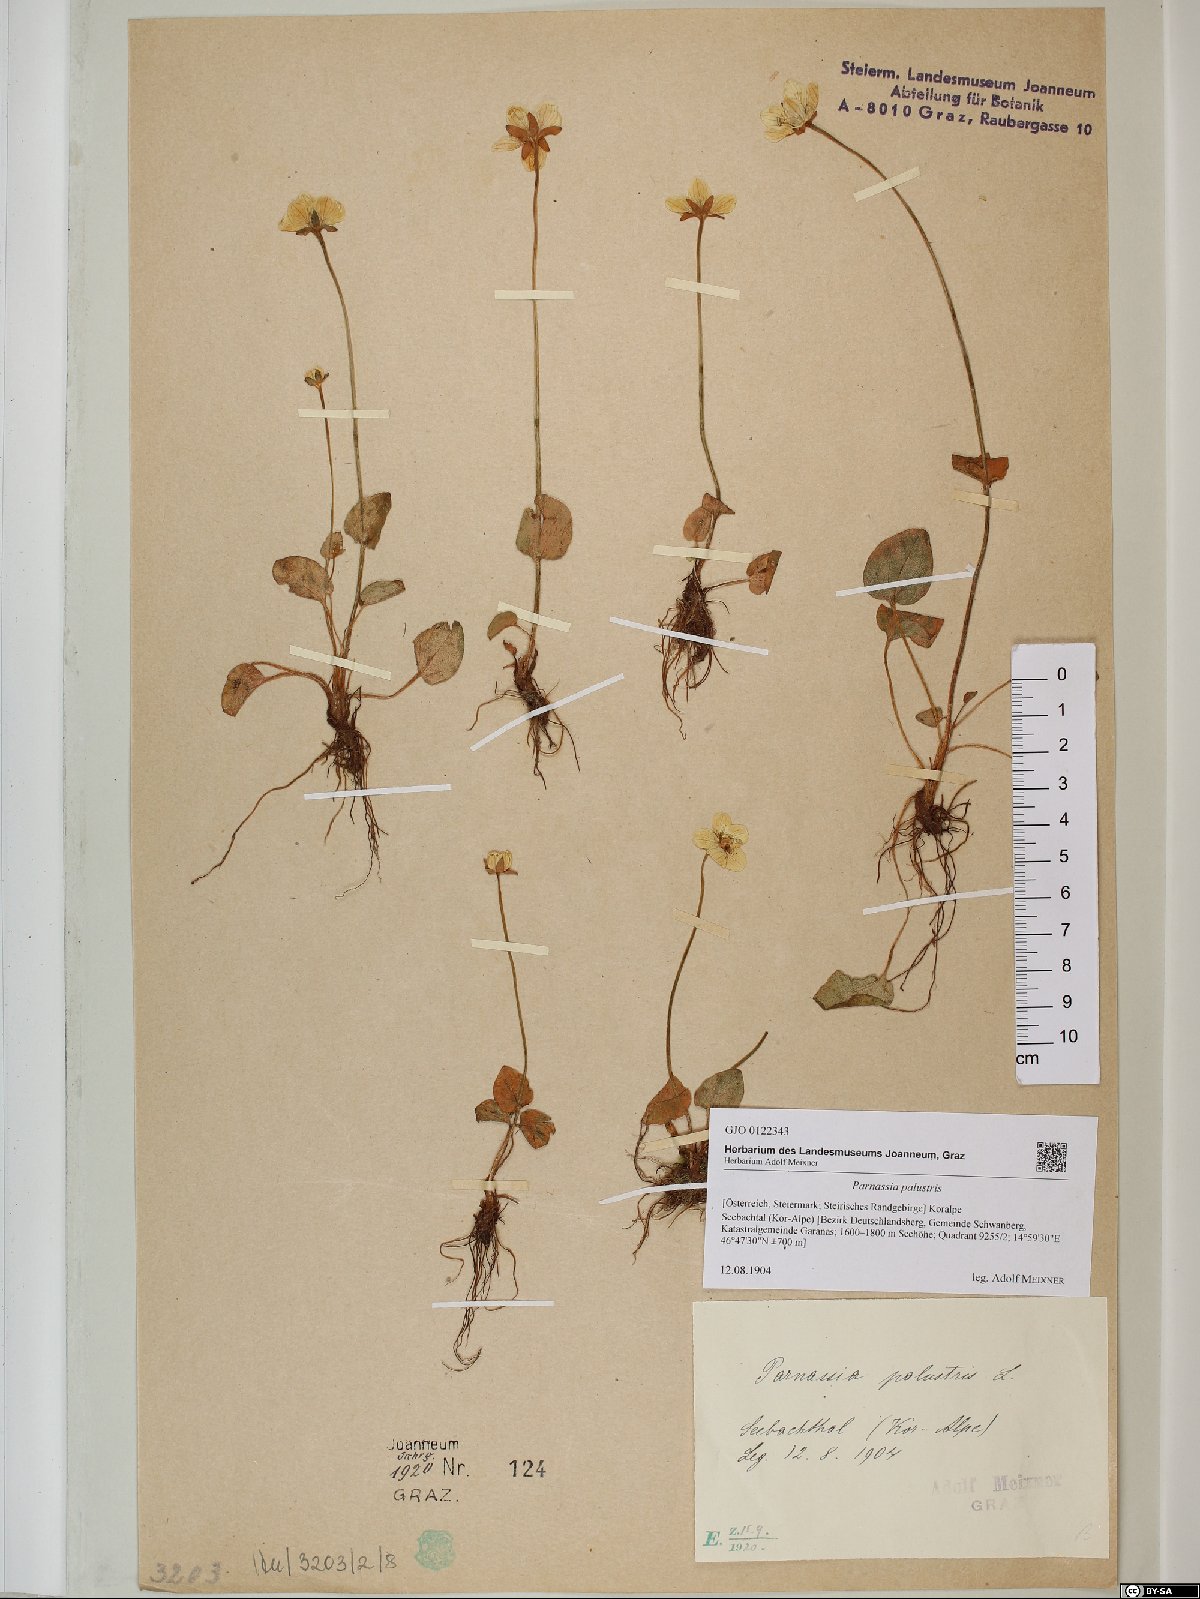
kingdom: Plantae
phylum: Tracheophyta
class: Magnoliopsida
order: Celastrales
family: Parnassiaceae
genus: Parnassia
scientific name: Parnassia palustris
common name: Grass-of-parnassus
